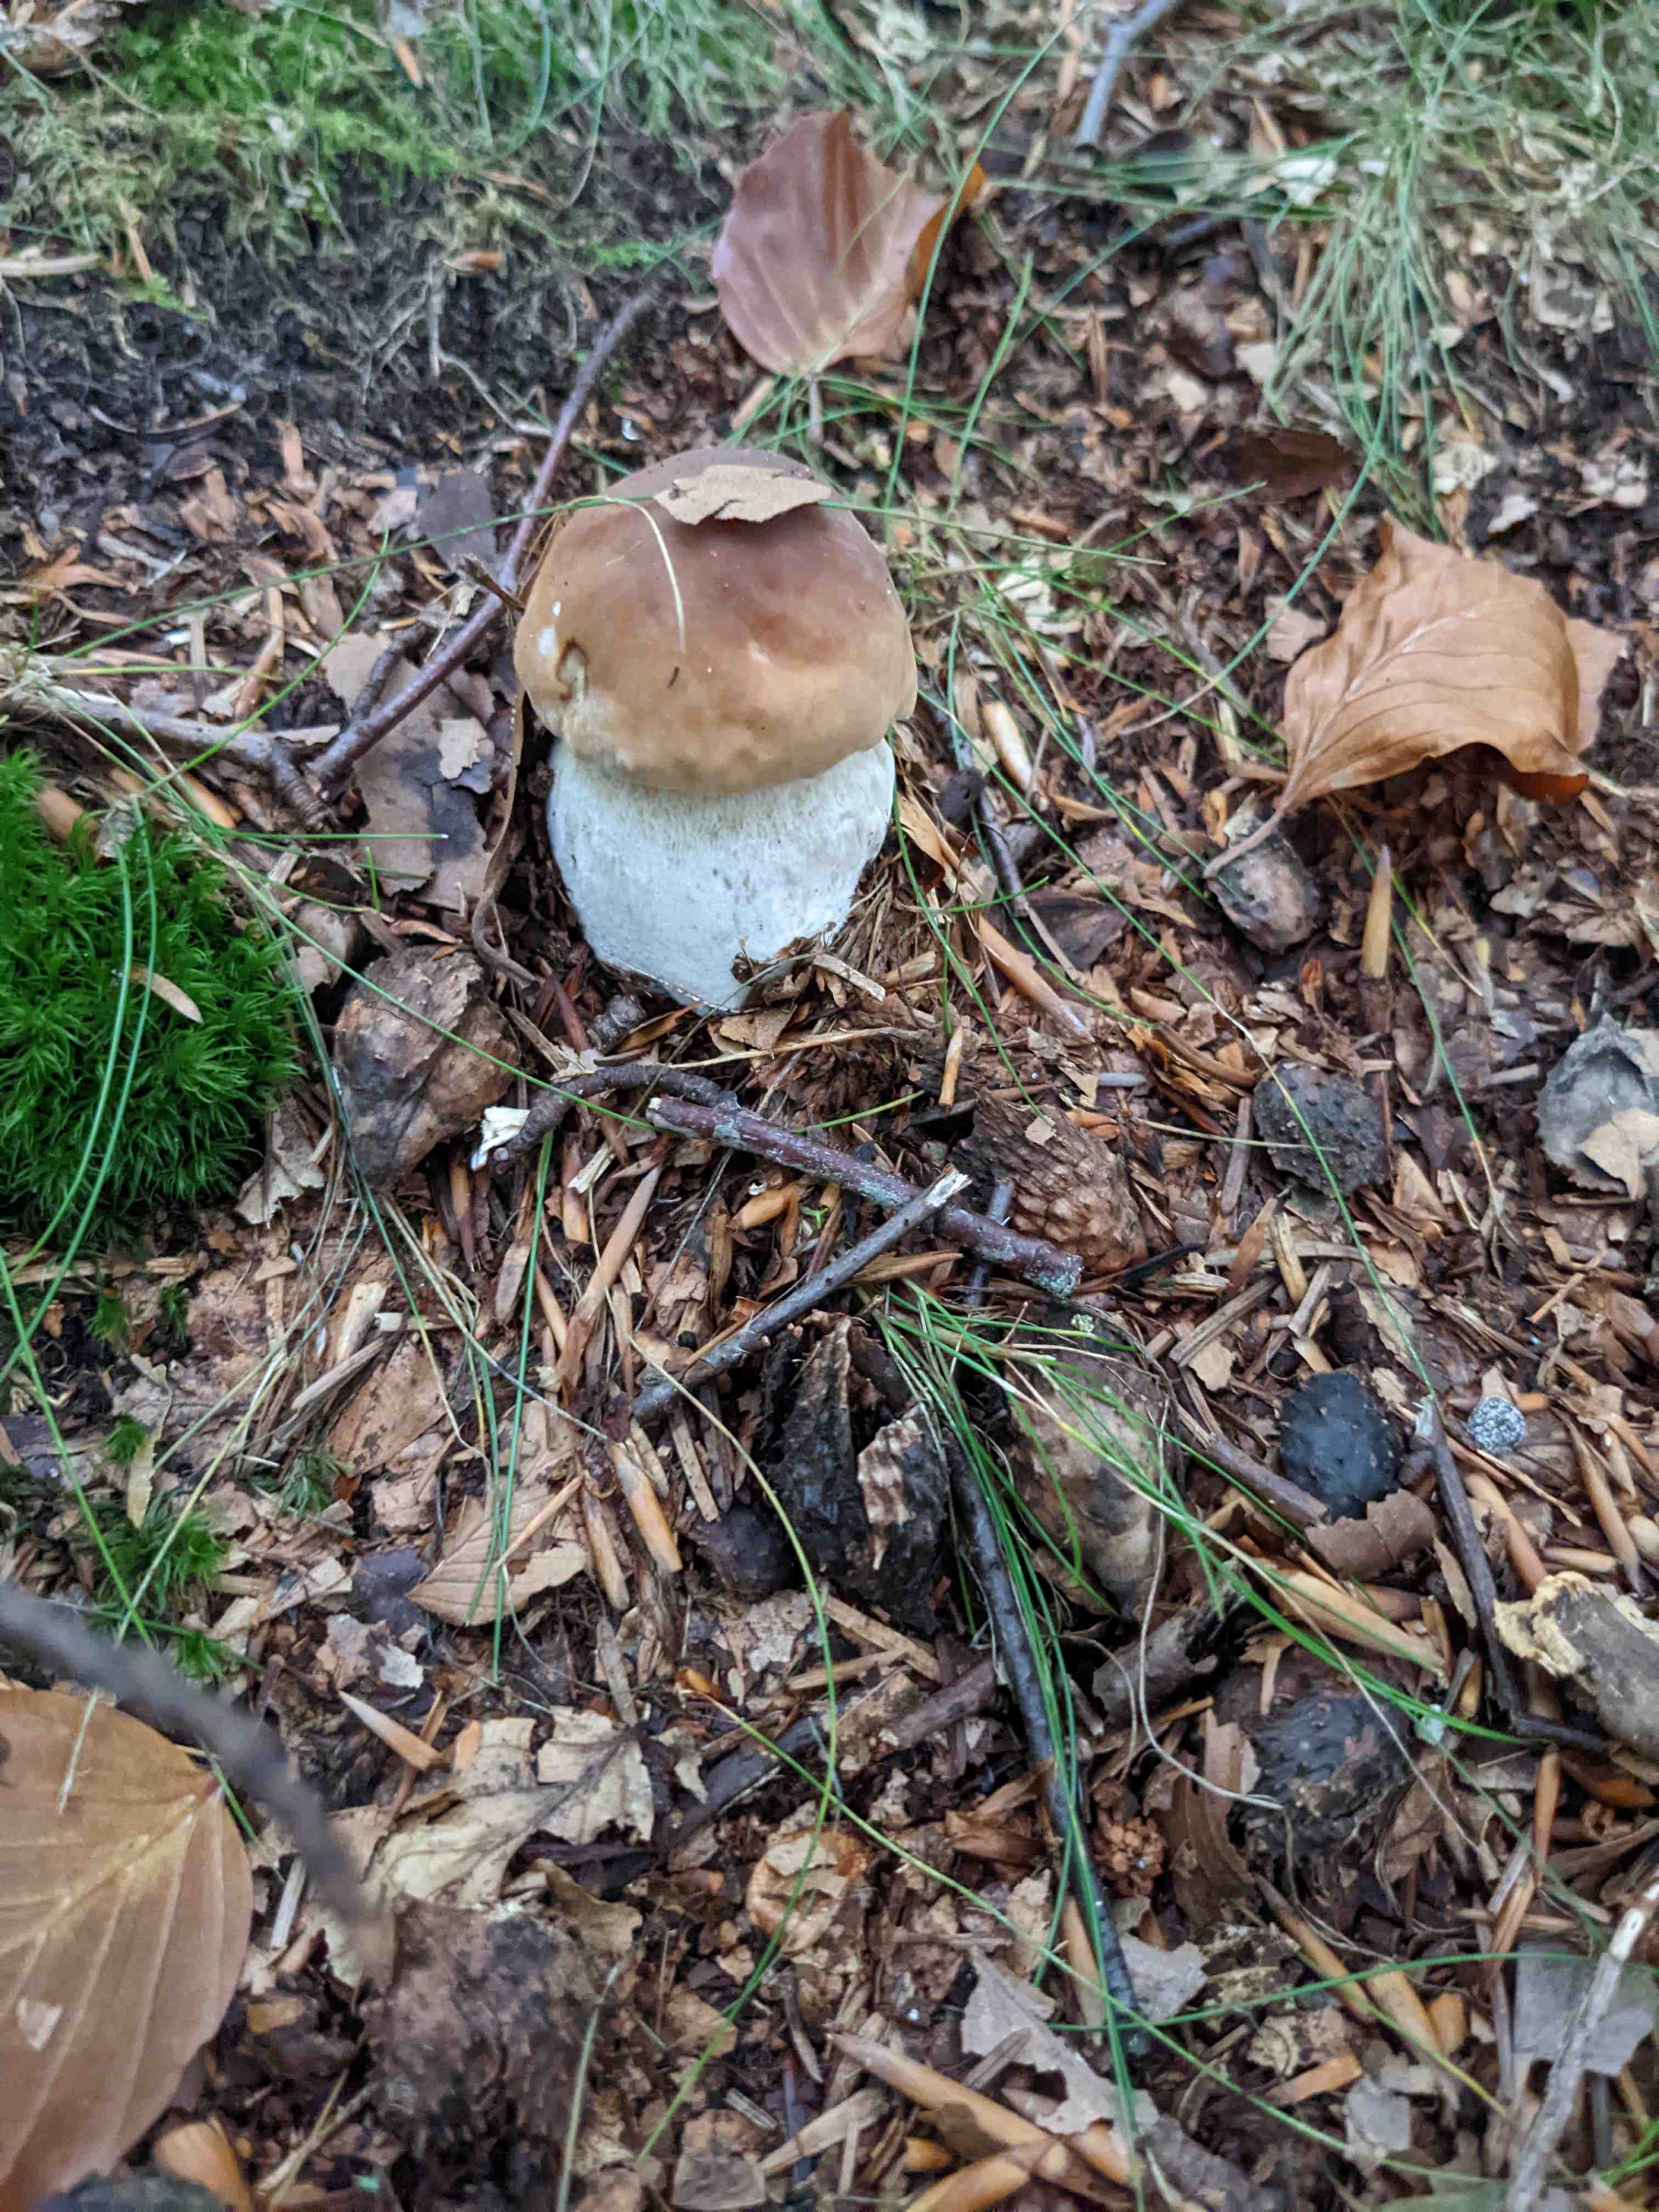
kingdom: Fungi
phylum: Basidiomycota
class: Agaricomycetes
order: Boletales
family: Boletaceae
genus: Boletus
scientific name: Boletus edulis
